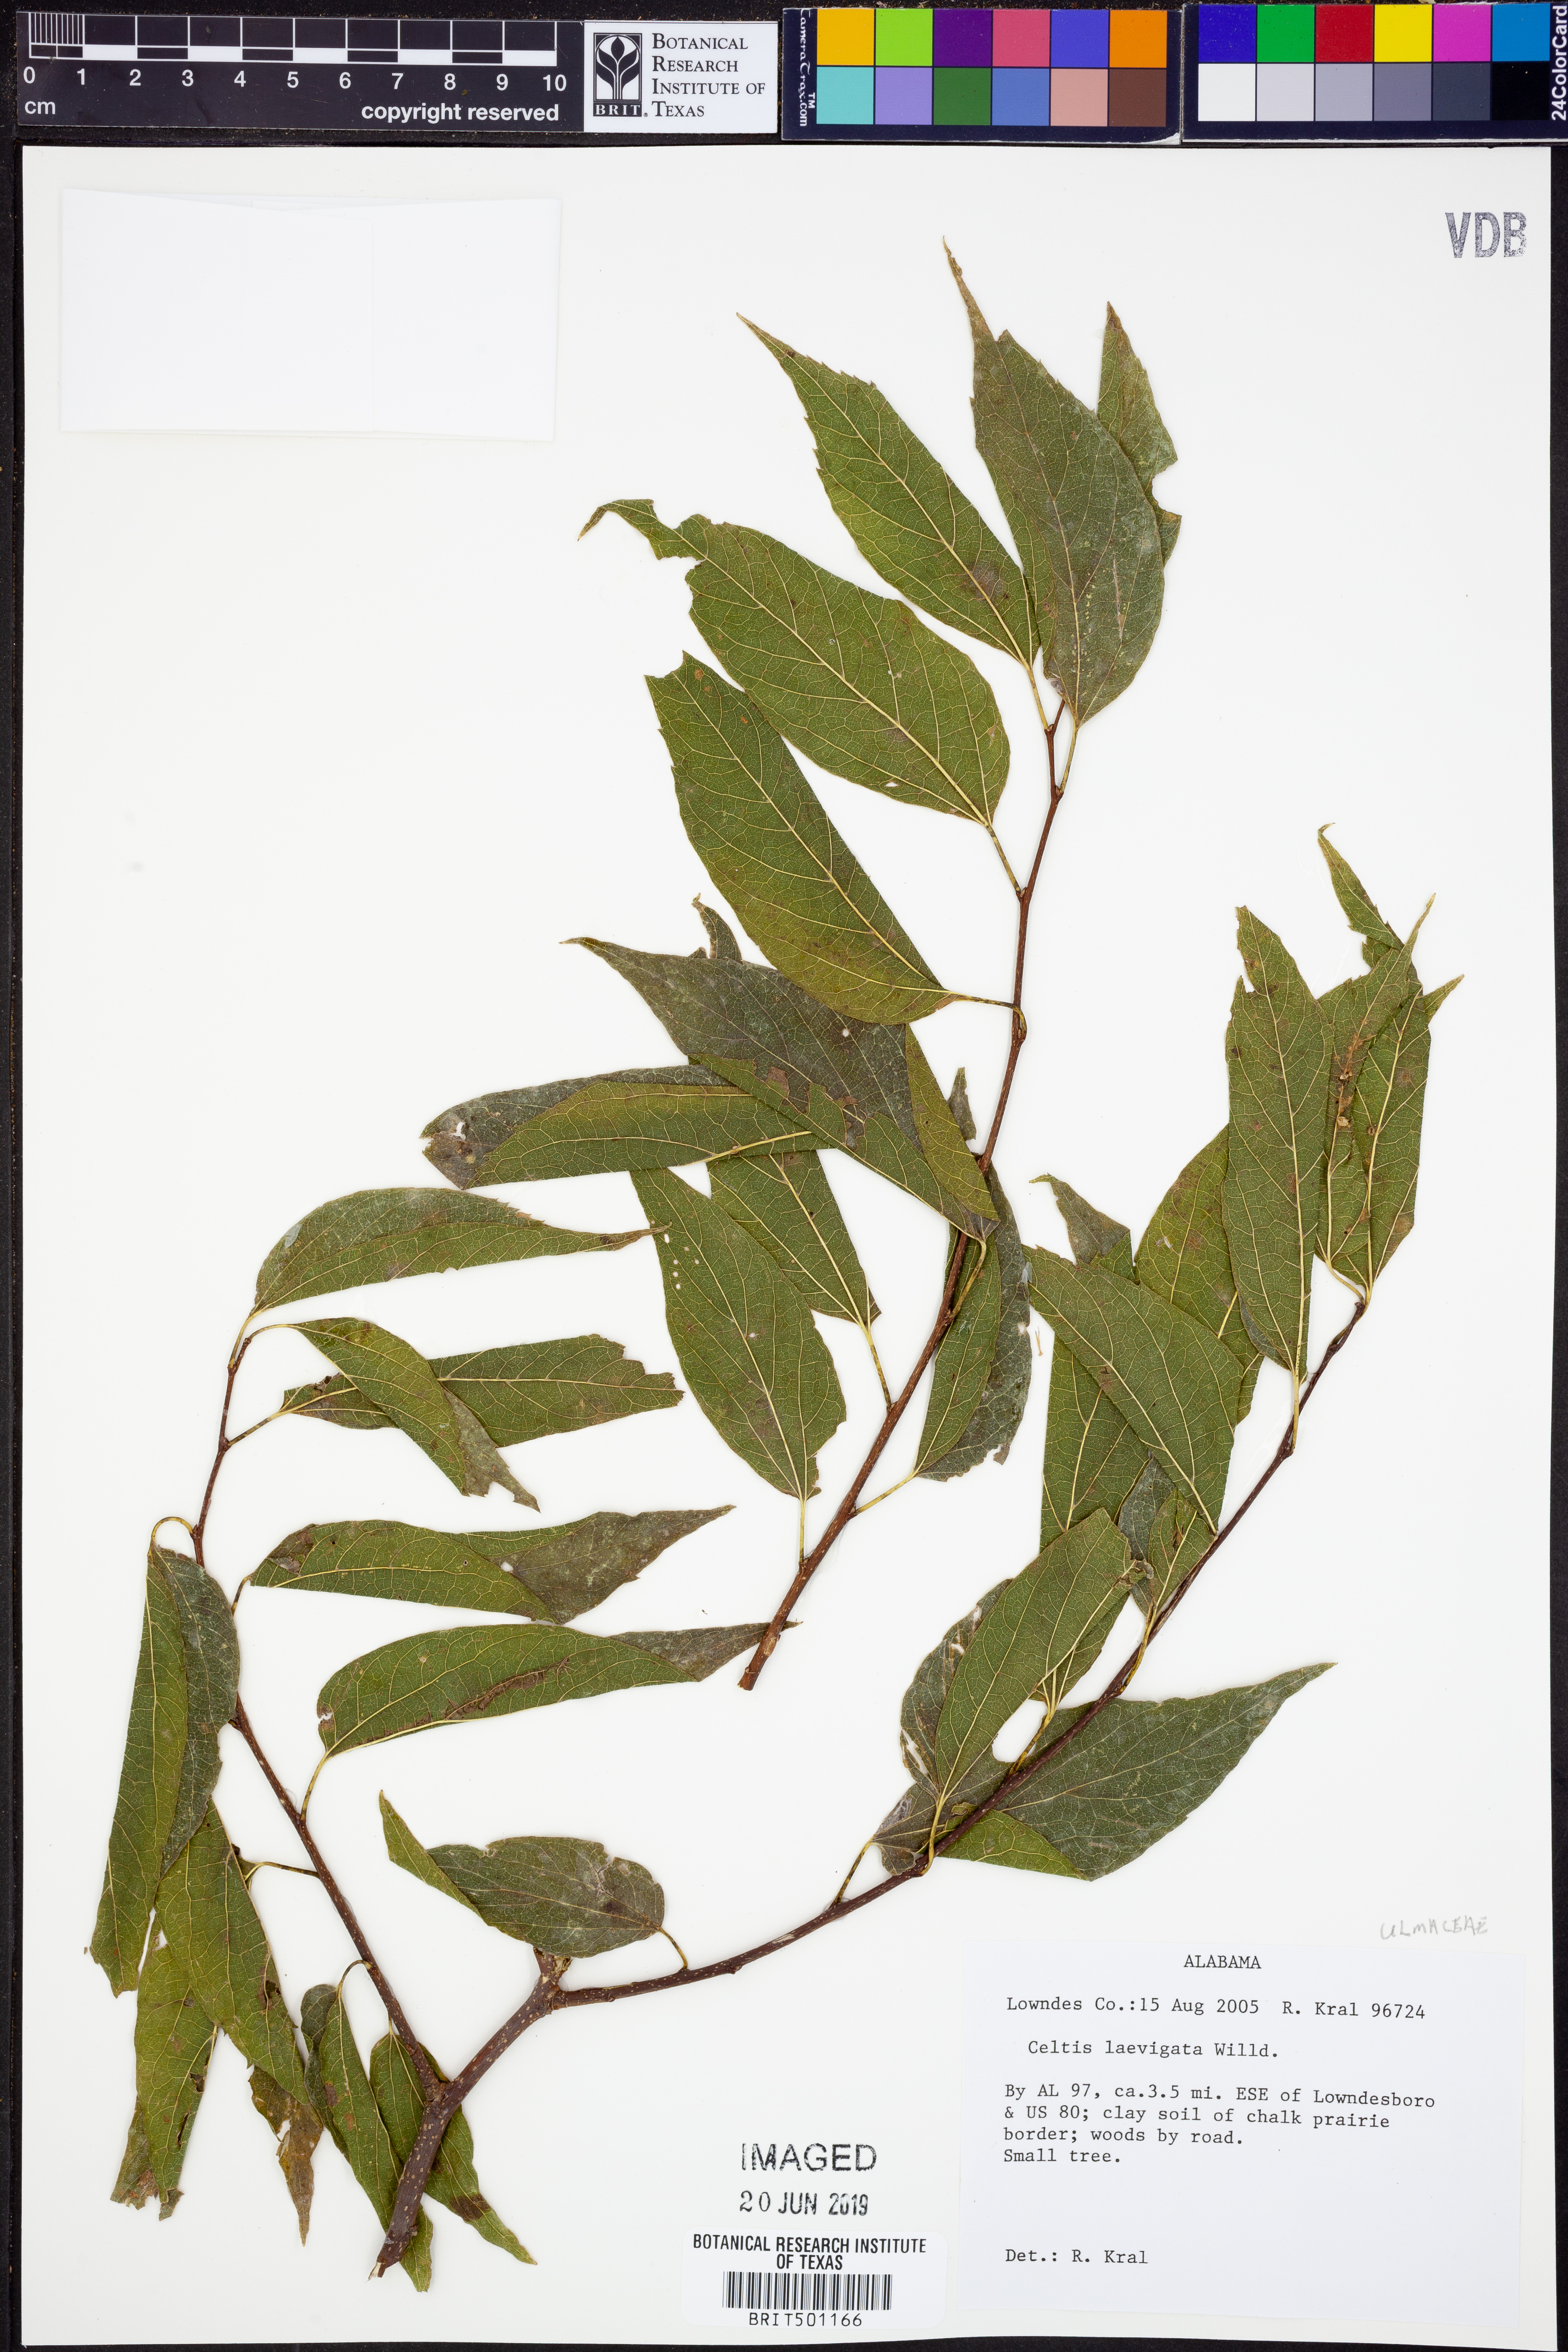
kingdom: Plantae
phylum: Tracheophyta
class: Magnoliopsida
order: Rosales
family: Cannabaceae
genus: Celtis
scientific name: Celtis laevigata
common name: Sugarberry
